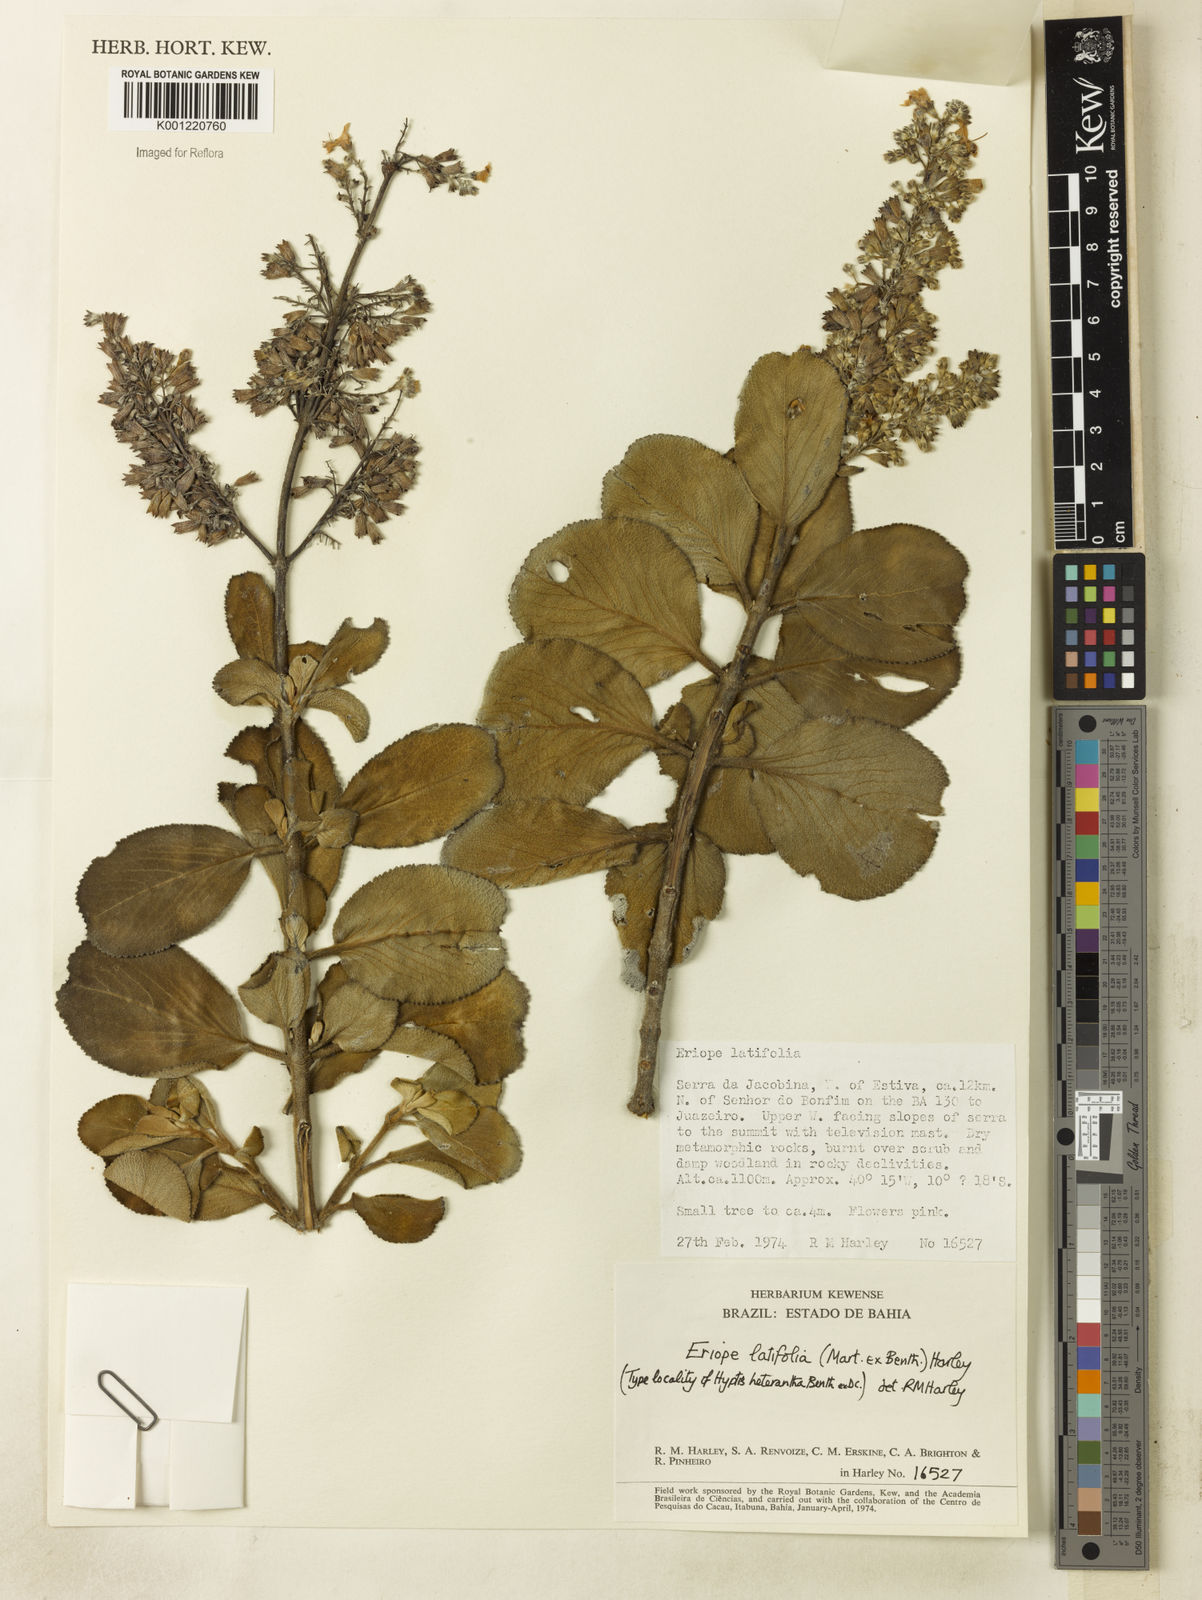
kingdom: Plantae
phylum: Tracheophyta
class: Magnoliopsida
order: Lamiales
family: Lamiaceae
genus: Eriope
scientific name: Eriope latifolia
